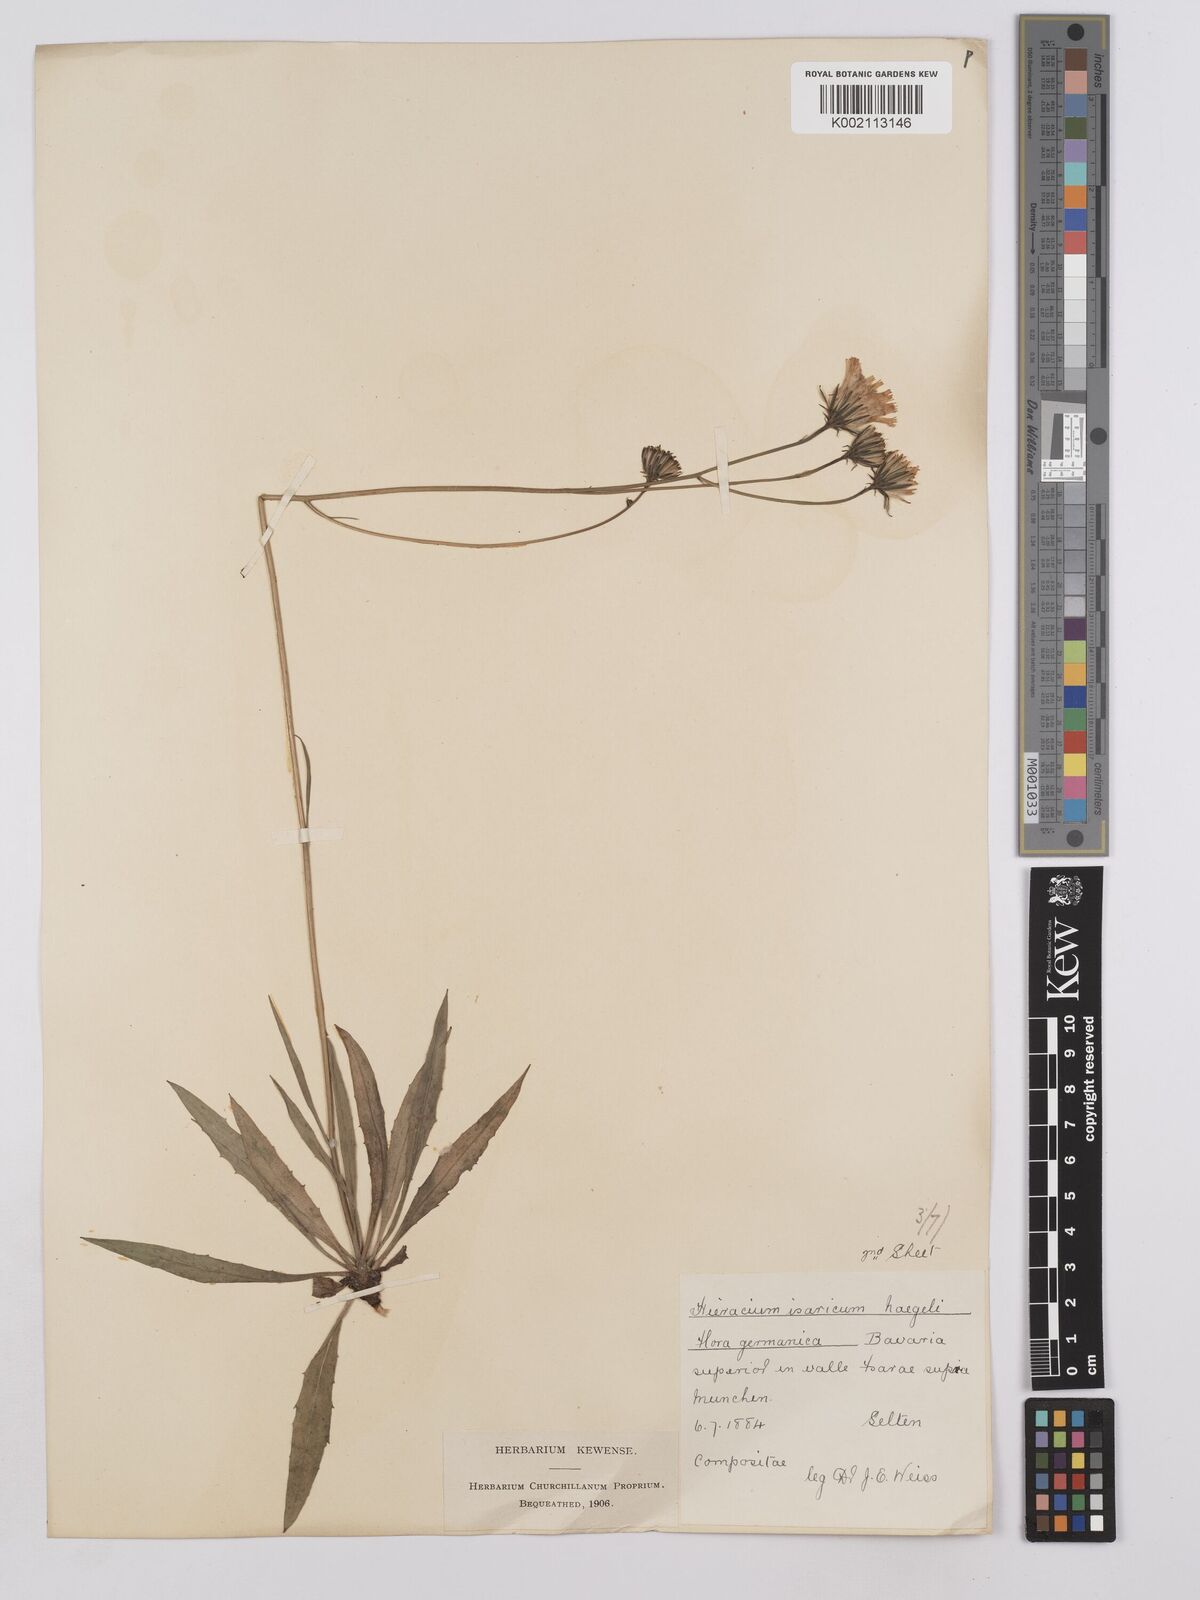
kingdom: Plantae
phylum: Tracheophyta
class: Magnoliopsida
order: Asterales
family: Asteraceae
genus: Hieracium
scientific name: Hieracium glaucum
